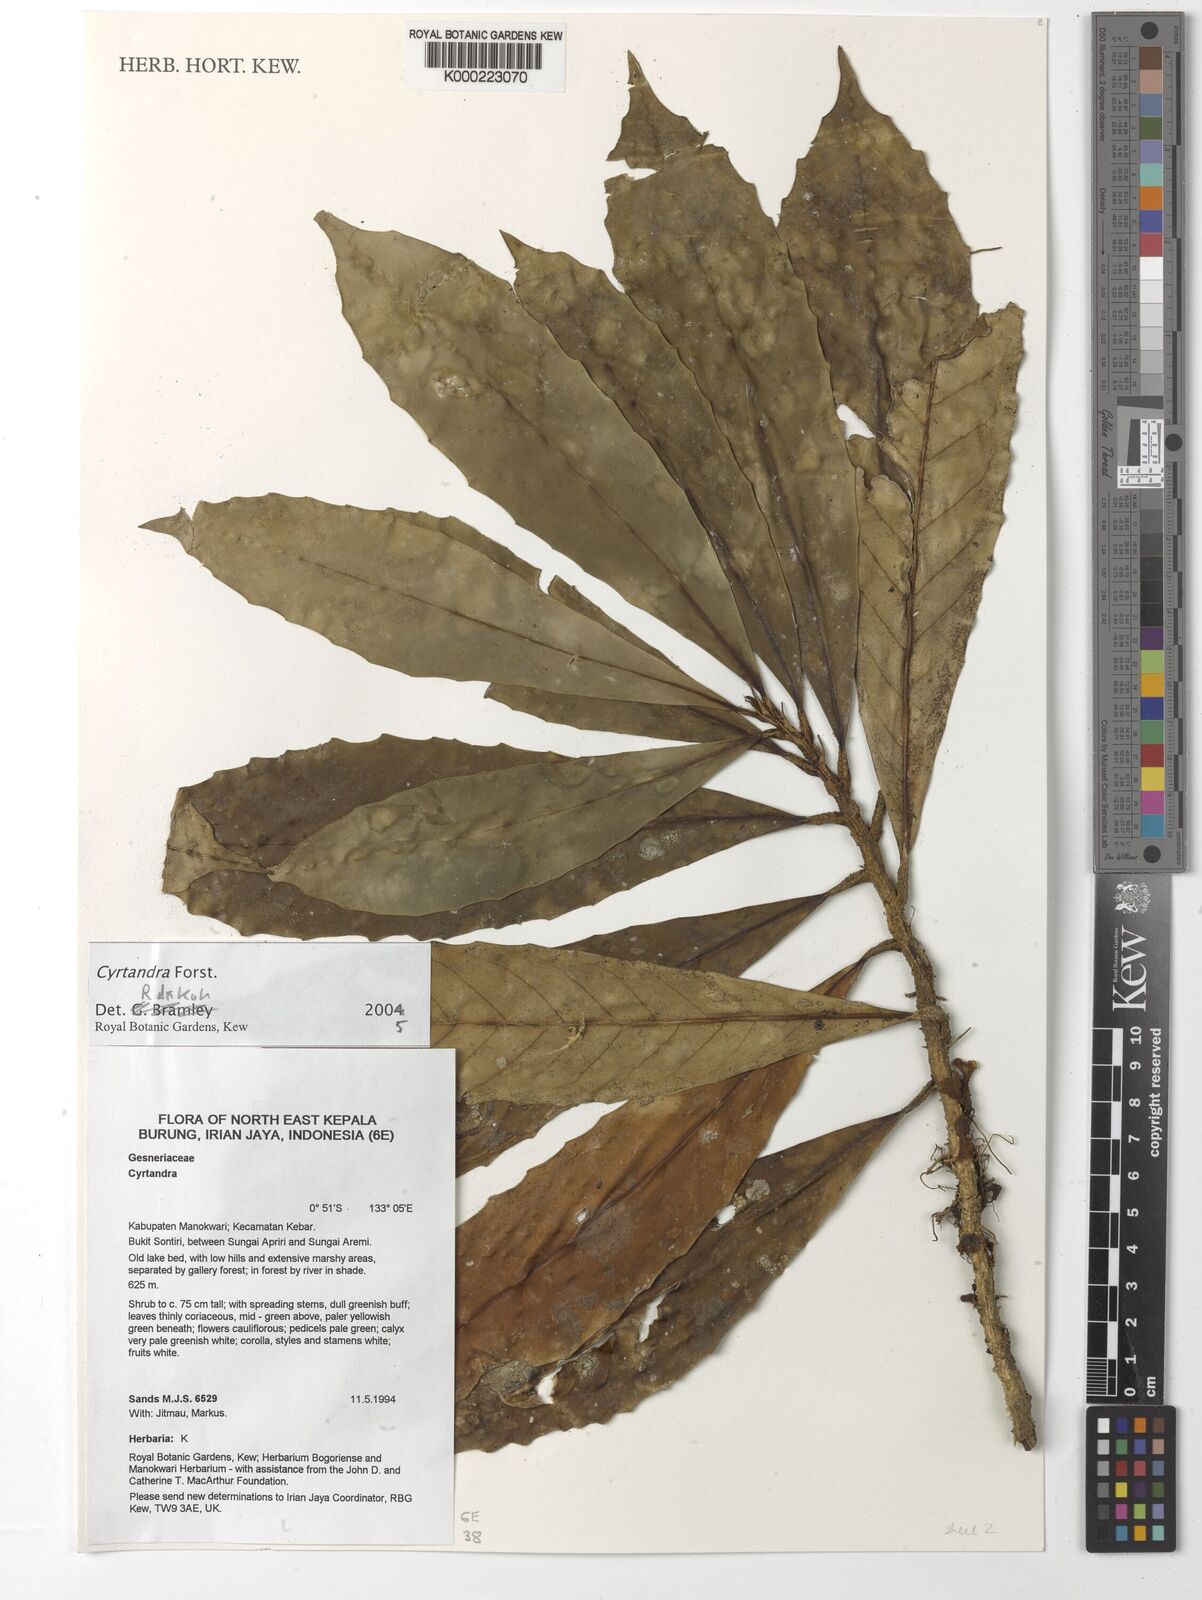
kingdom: Plantae
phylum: Tracheophyta
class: Magnoliopsida
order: Lamiales
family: Gesneriaceae
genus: Cyrtandra
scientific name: Cyrtandra
